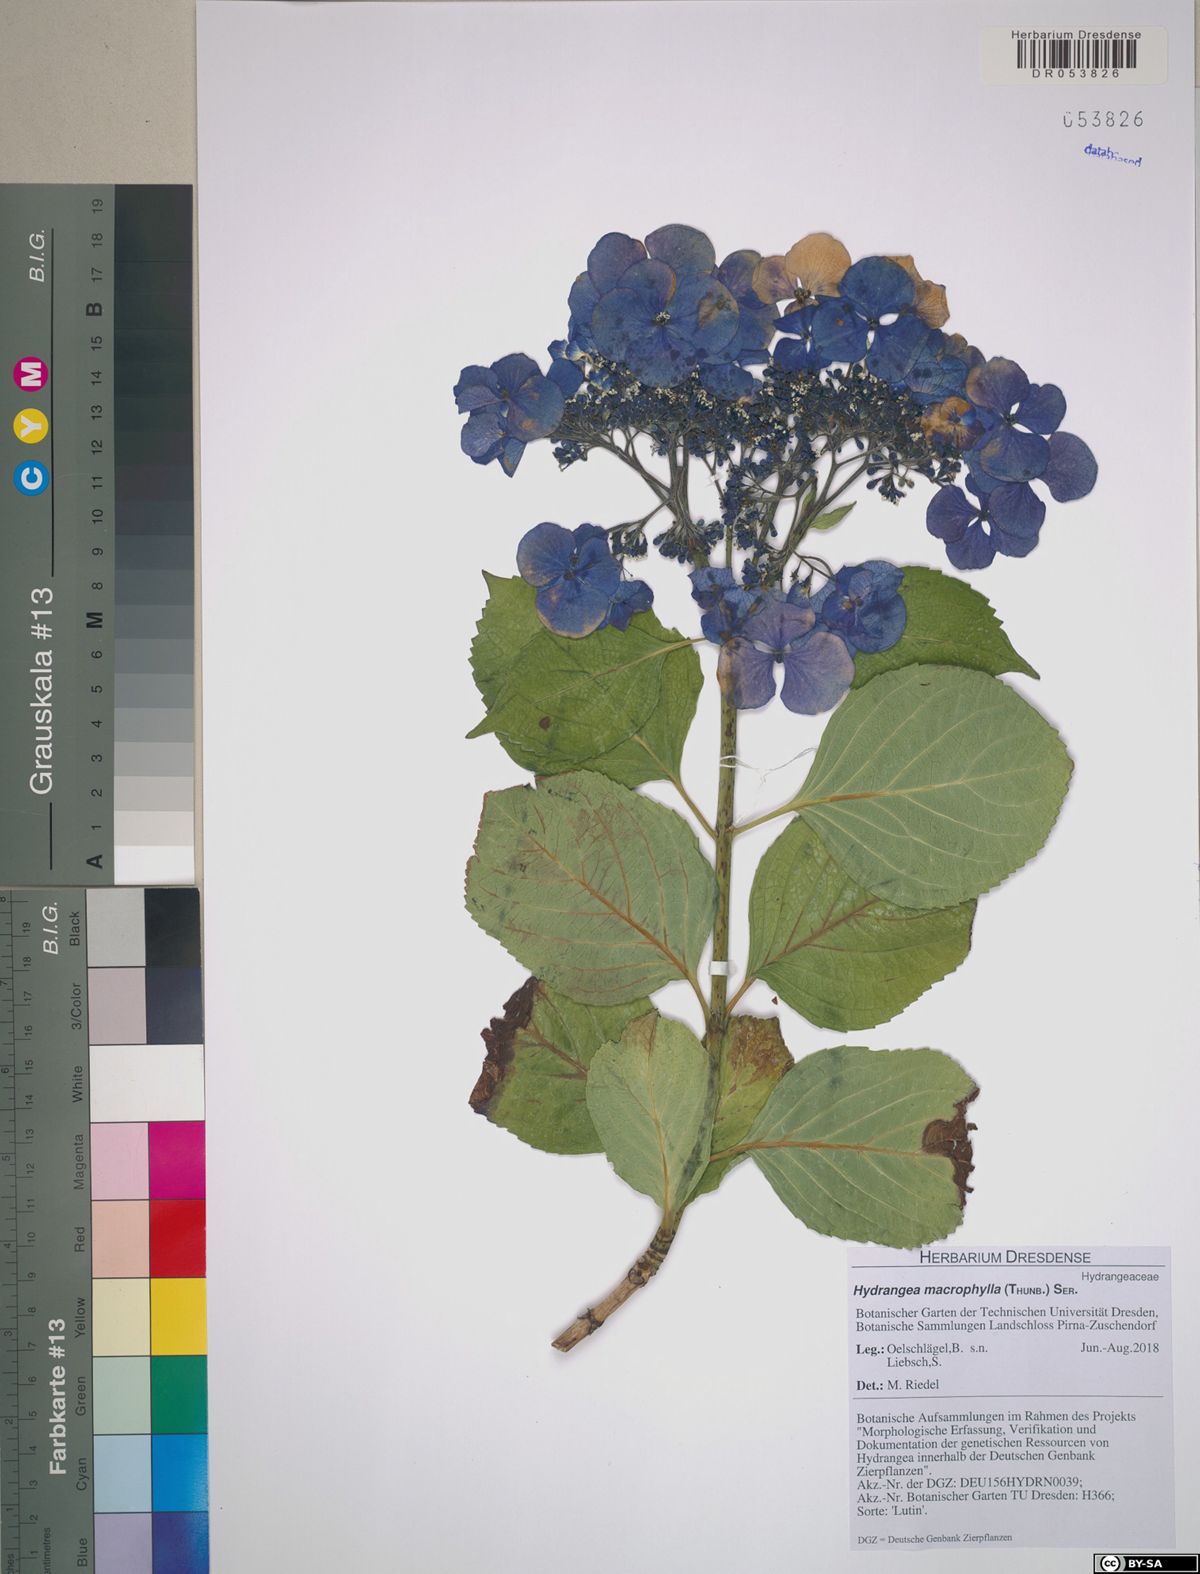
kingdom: Plantae
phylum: Tracheophyta
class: Magnoliopsida
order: Cornales
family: Hydrangeaceae
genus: Hydrangea
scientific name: Hydrangea macrophylla
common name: Hydrangea
